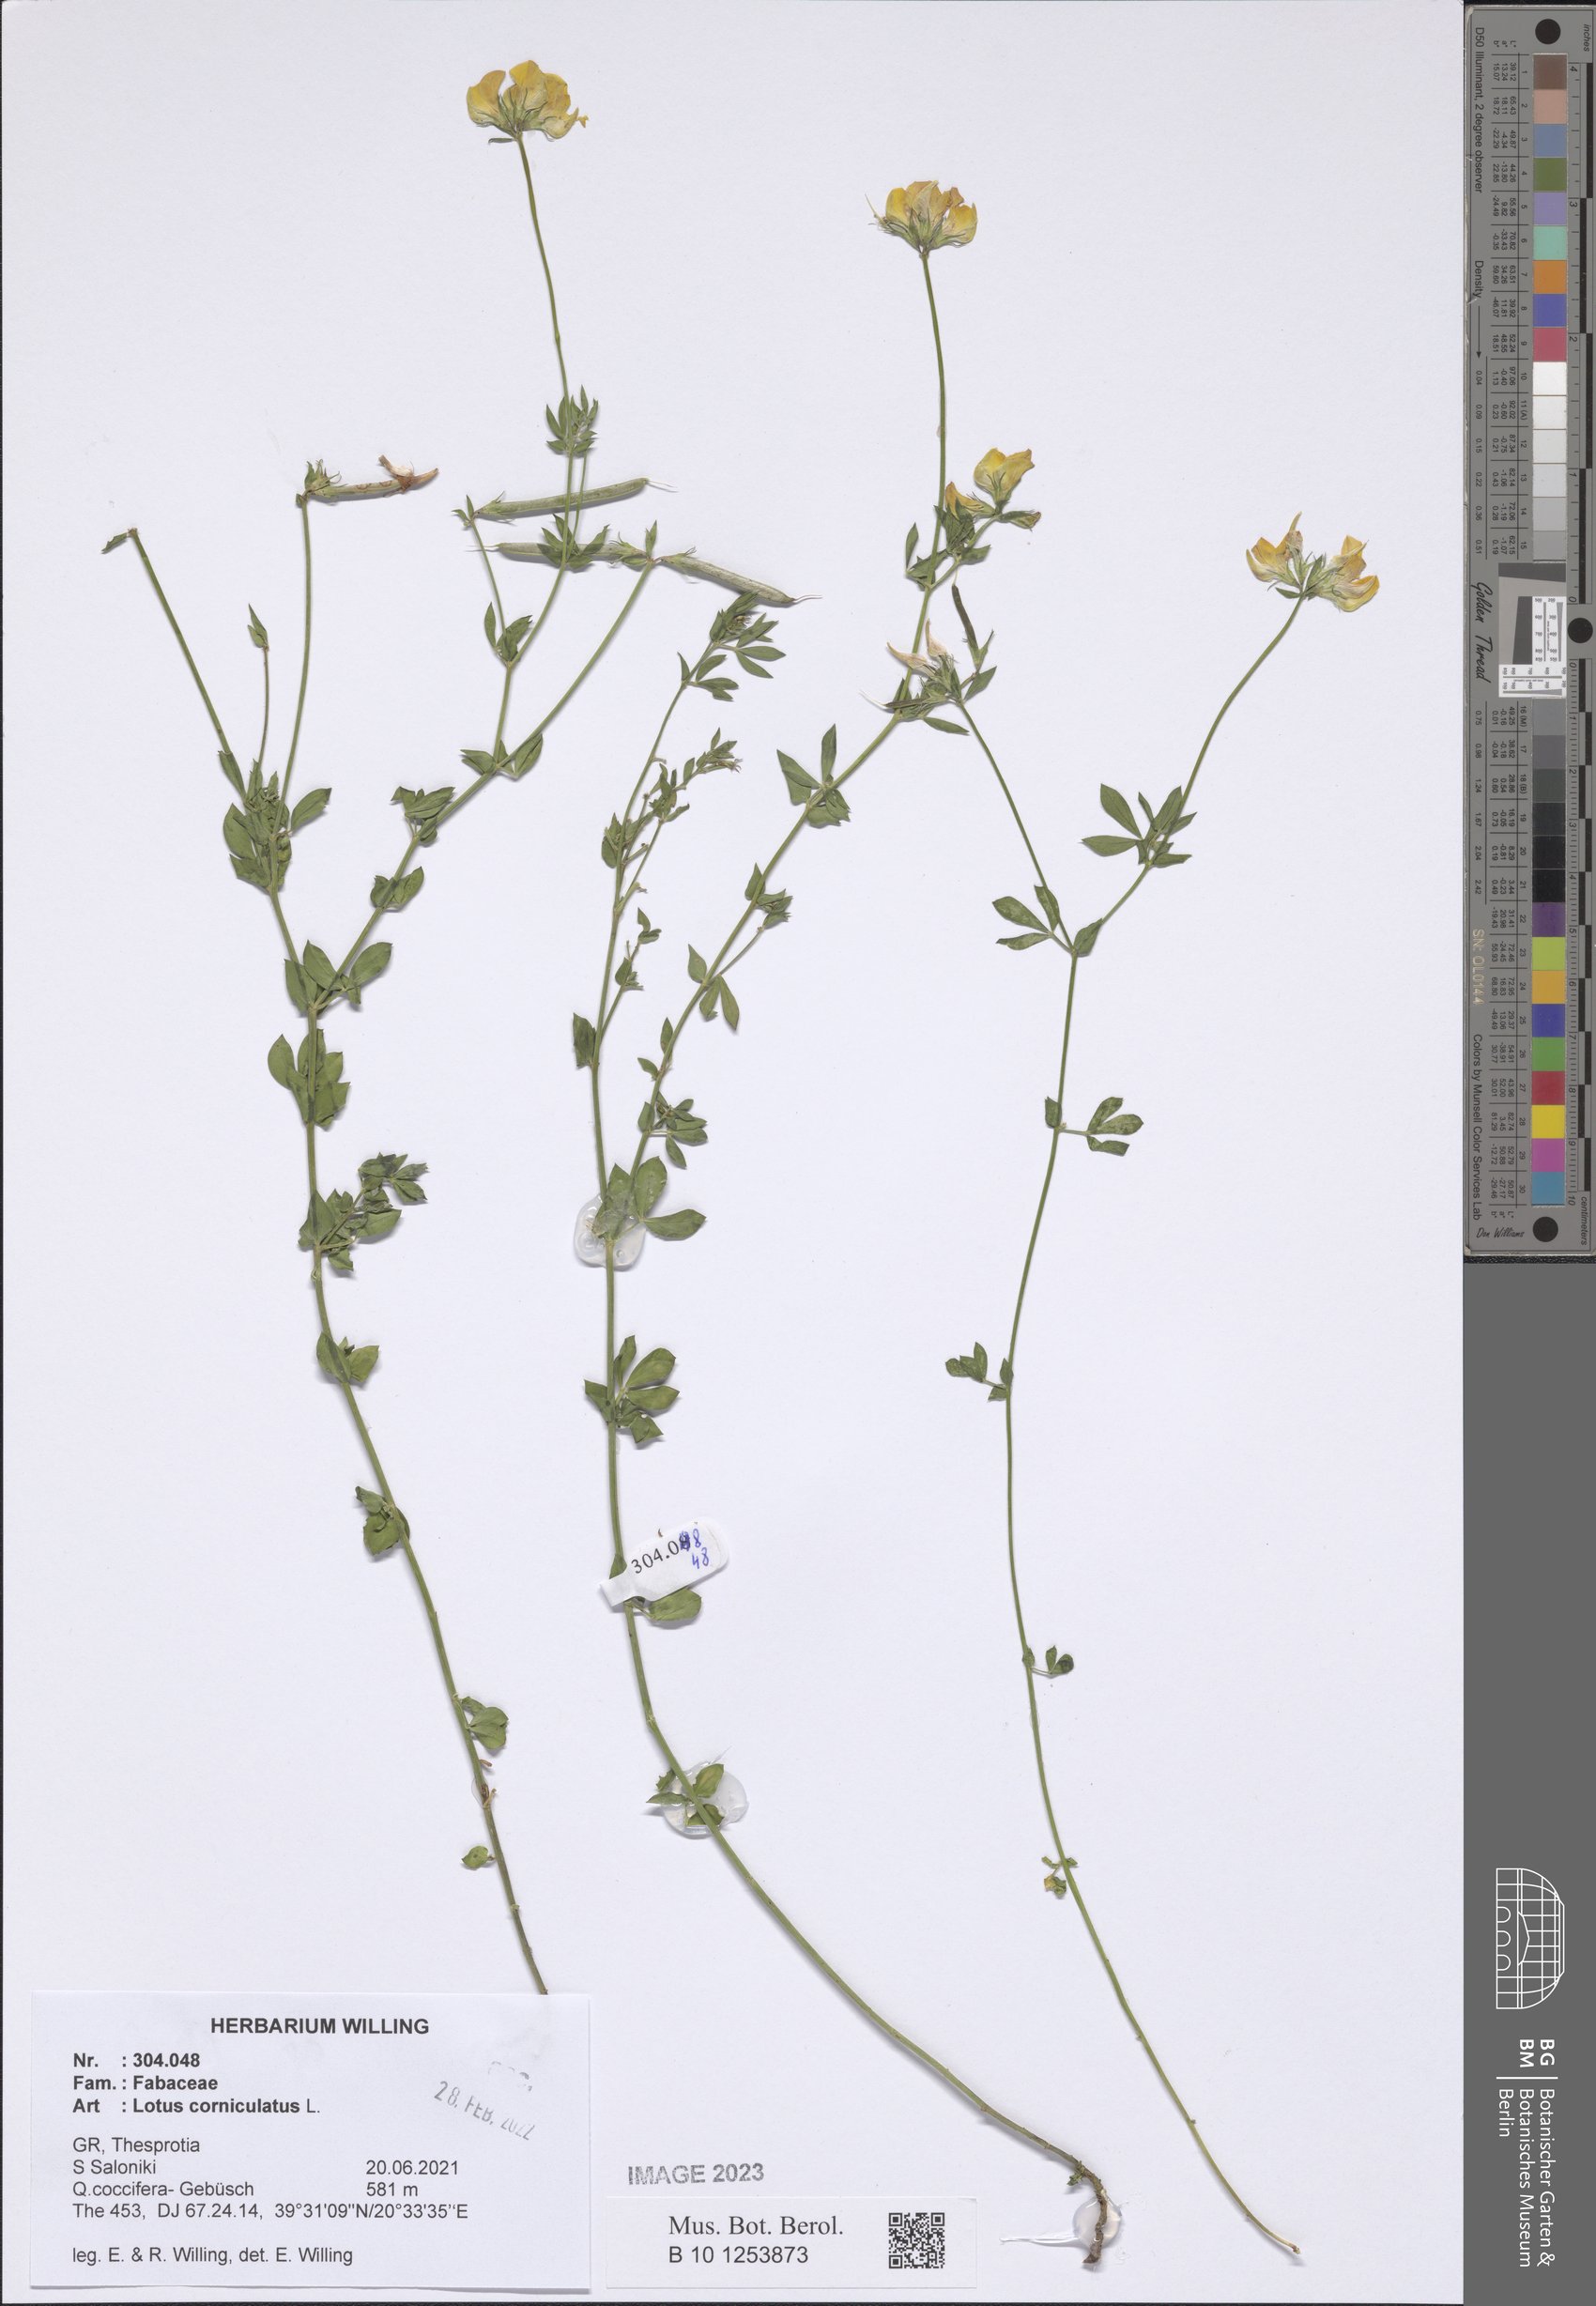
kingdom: Plantae
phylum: Tracheophyta
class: Magnoliopsida
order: Fabales
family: Fabaceae
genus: Lotus
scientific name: Lotus corniculatus
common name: Common bird's-foot-trefoil
